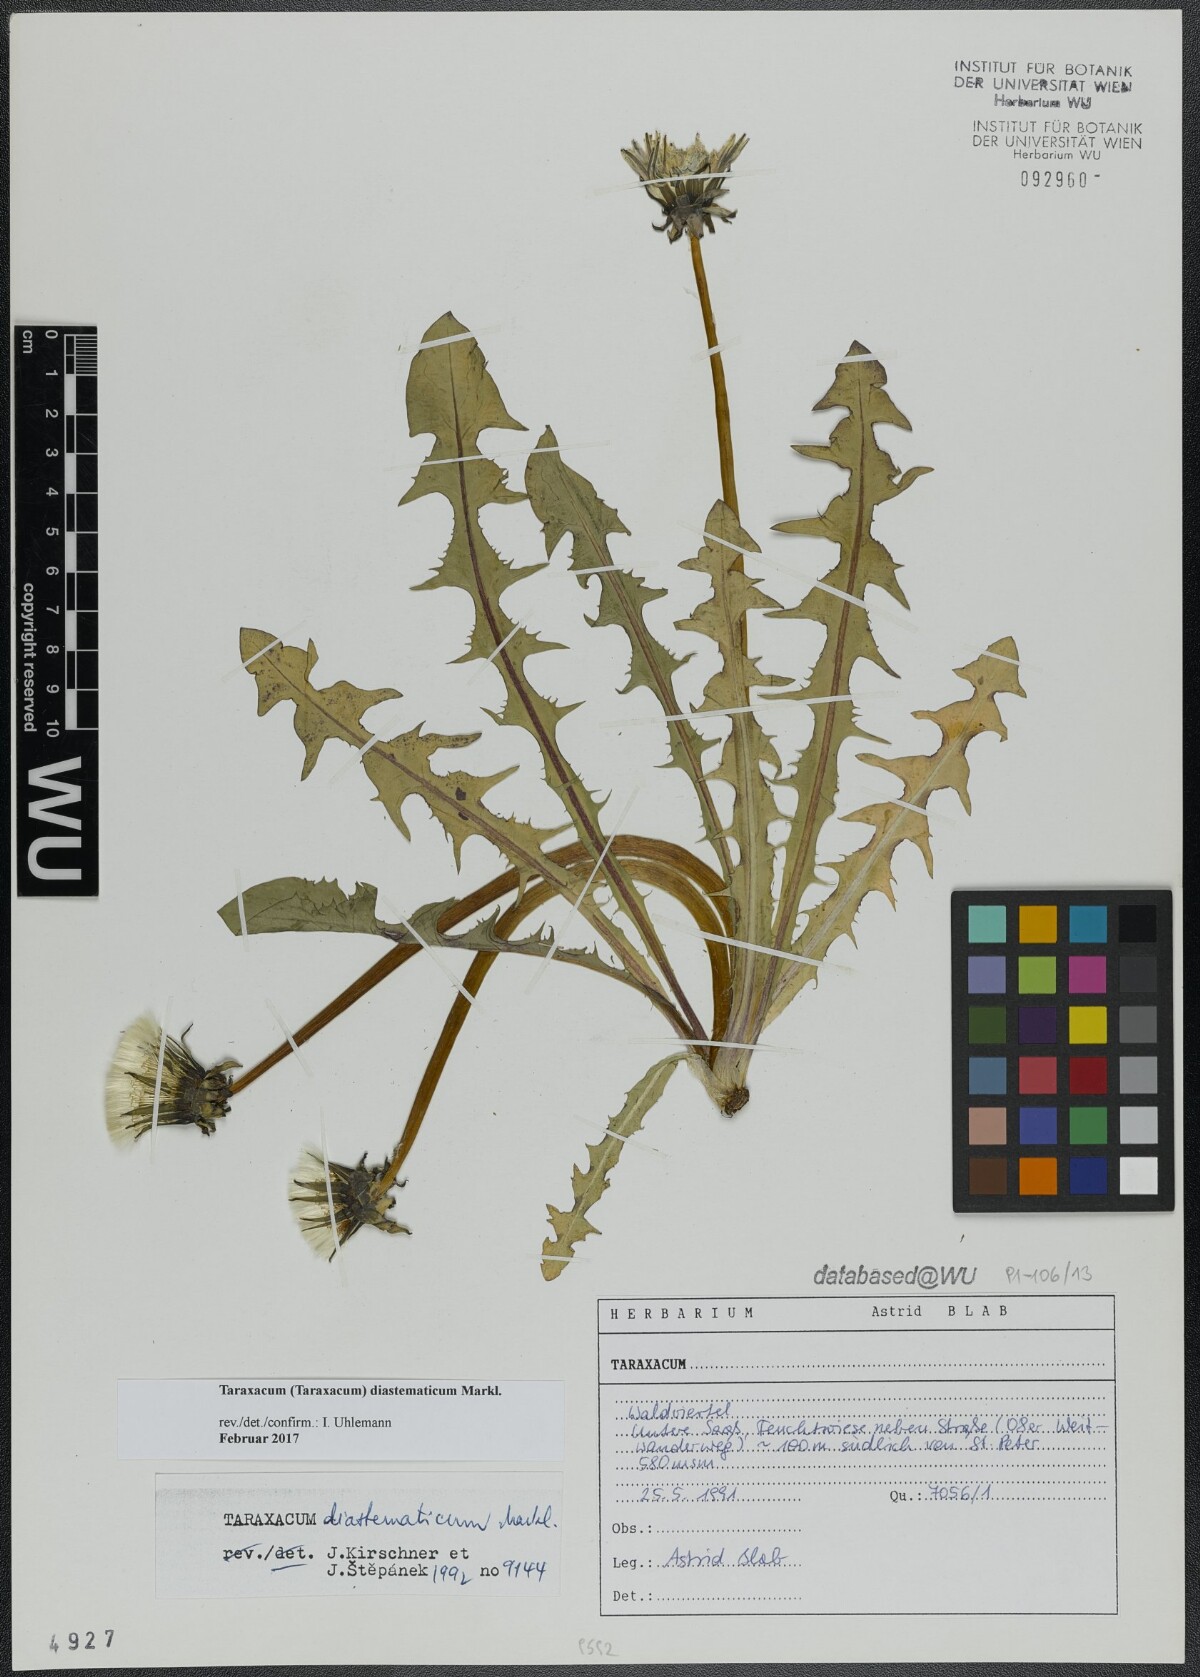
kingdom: Plantae
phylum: Tracheophyta
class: Magnoliopsida
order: Asterales
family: Asteraceae
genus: Taraxacum
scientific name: Taraxacum diastematicum
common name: Bulbous-lobed dandelion
